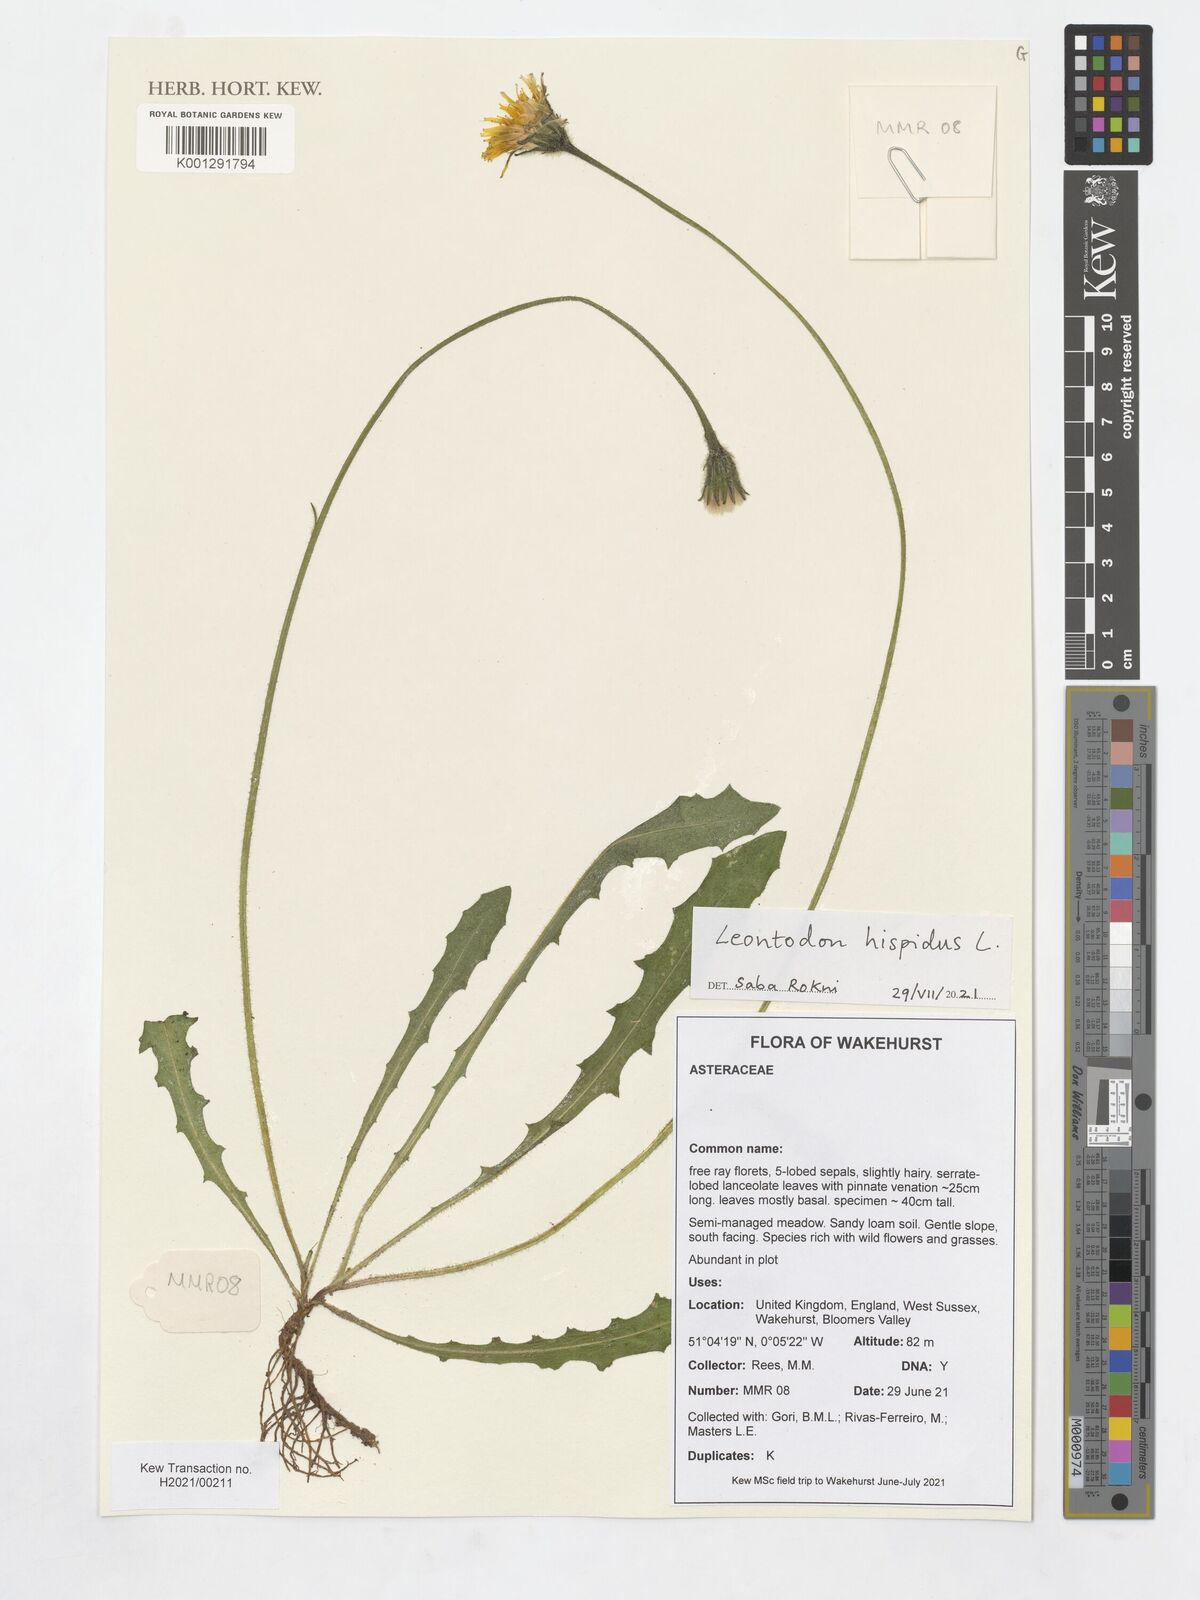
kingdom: Plantae
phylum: Tracheophyta
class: Magnoliopsida
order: Asterales
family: Asteraceae
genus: Leontodon
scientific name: Leontodon hispidus
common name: Rough hawkbit
